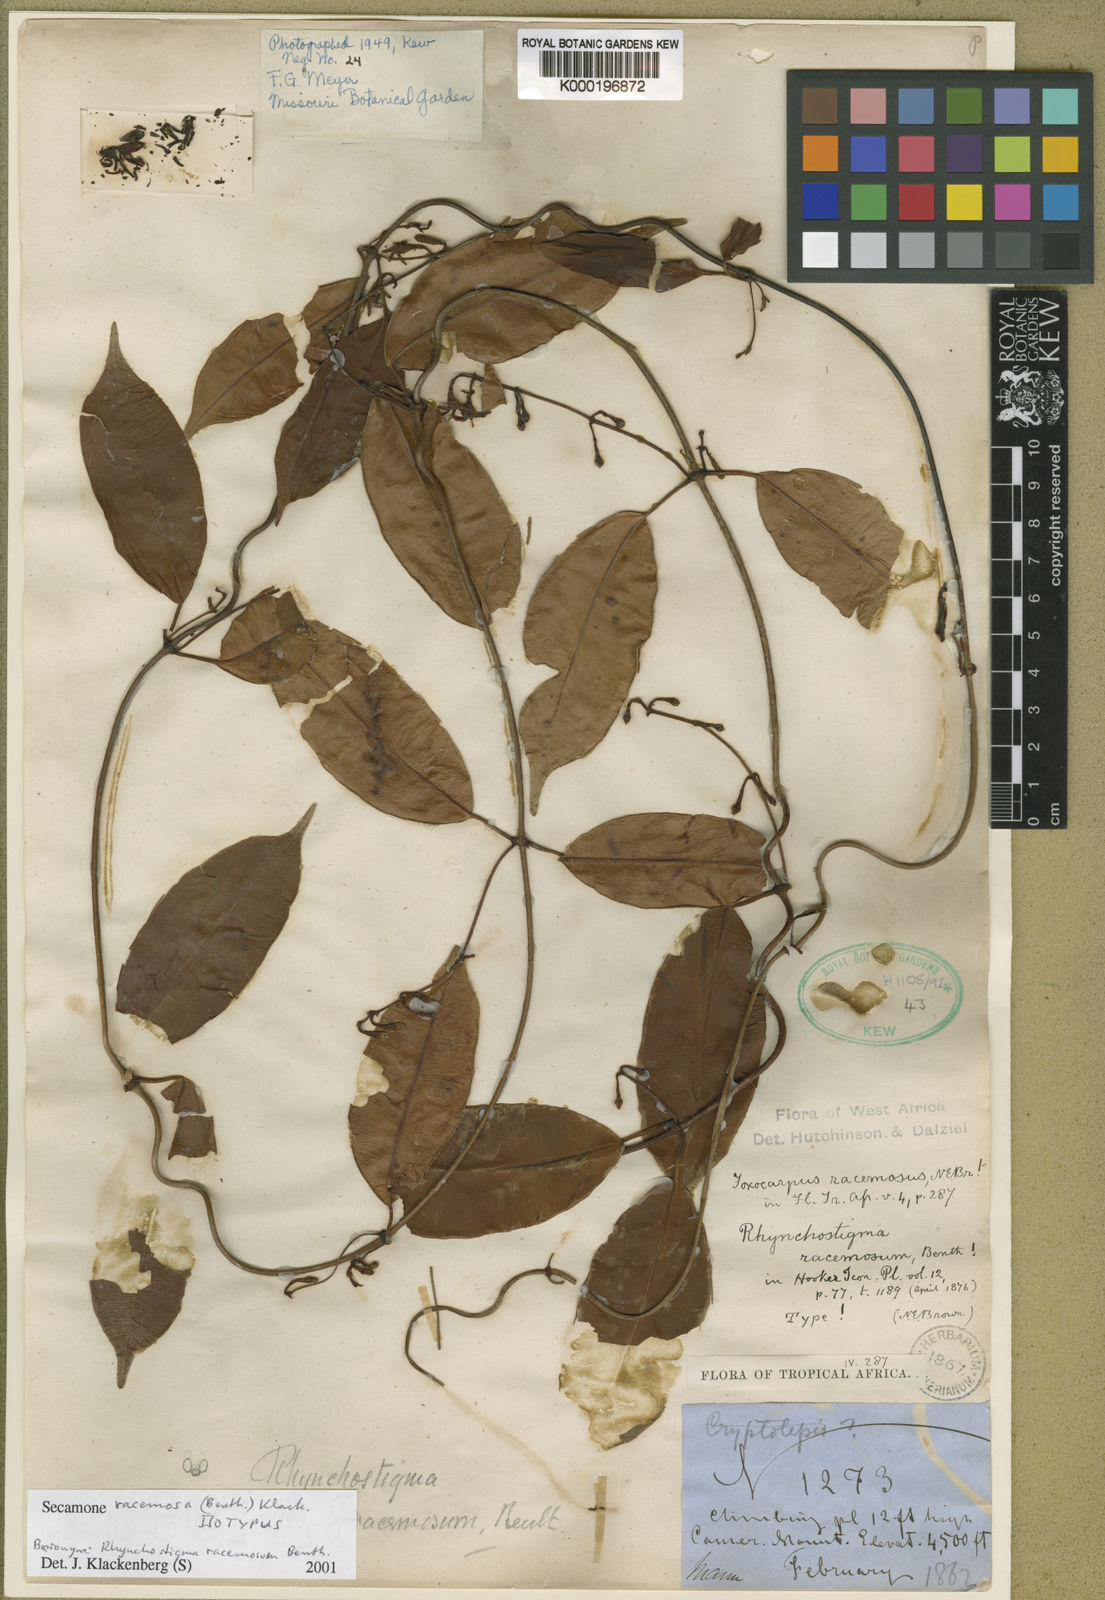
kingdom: Plantae
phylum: Tracheophyta
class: Magnoliopsida
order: Gentianales
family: Apocynaceae
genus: Secamone
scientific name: Secamone racemosa
